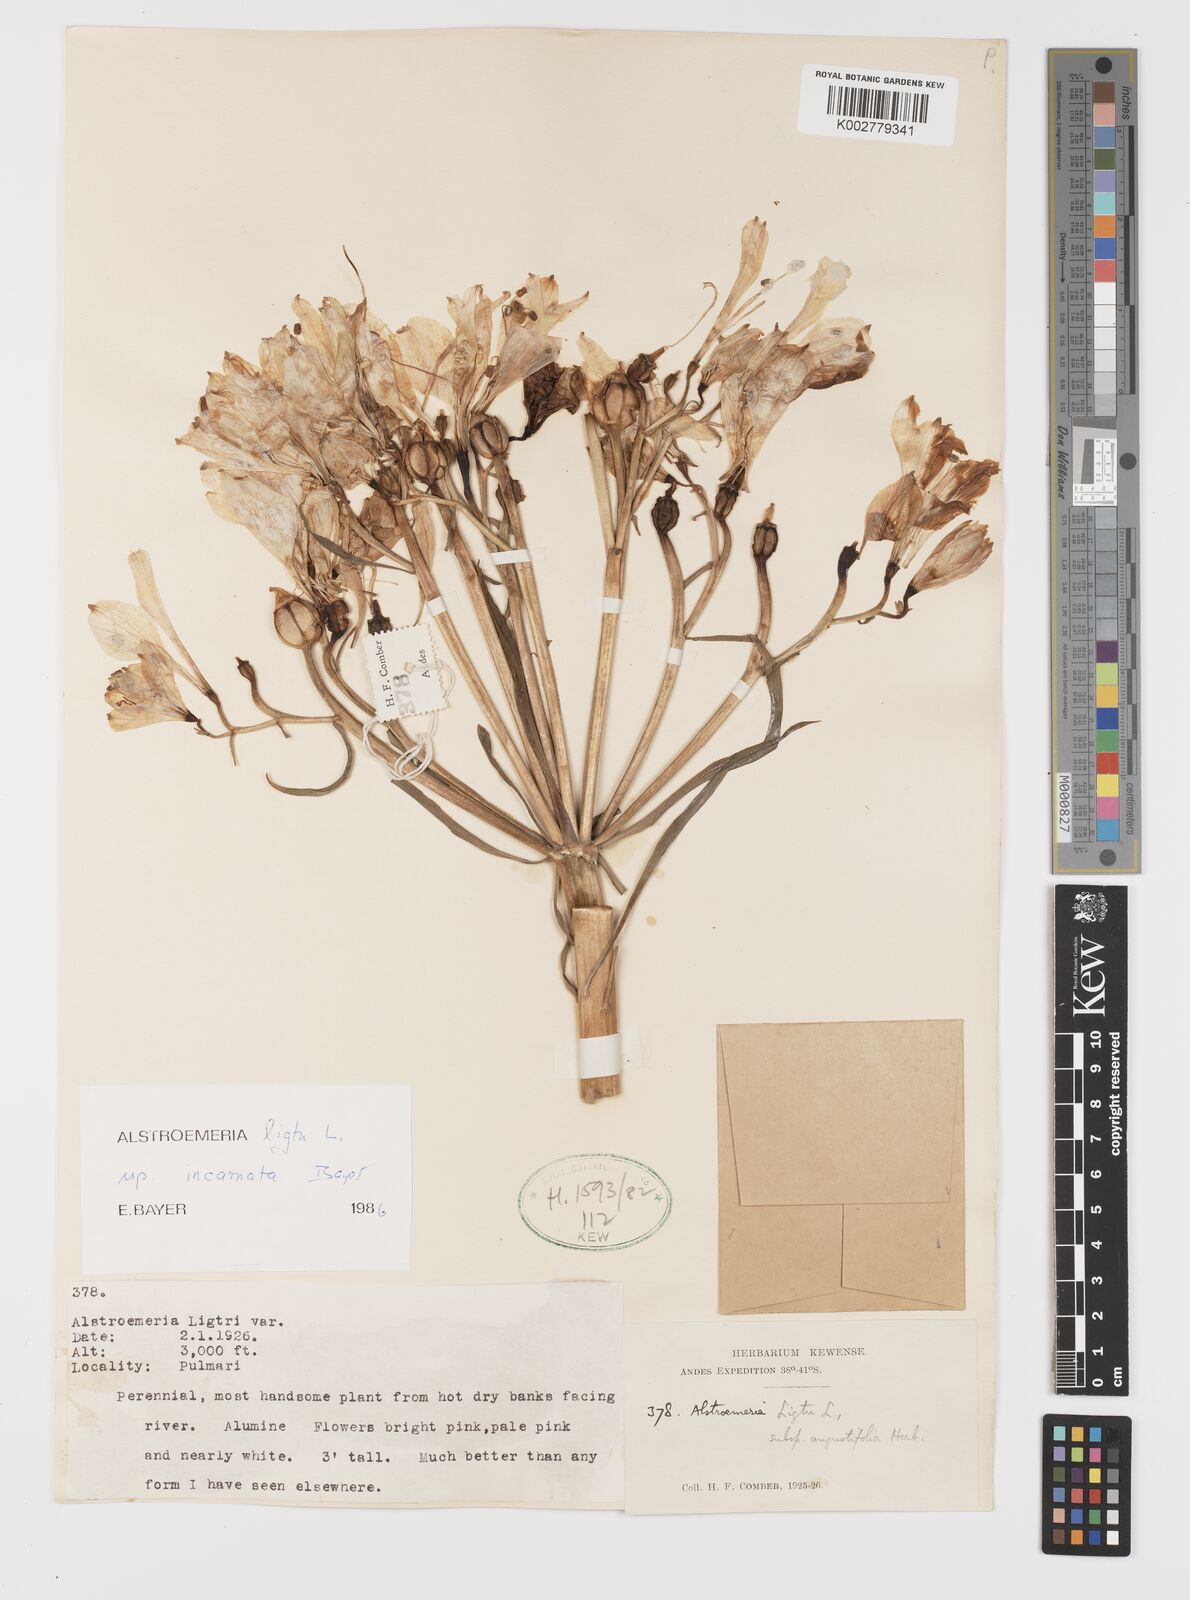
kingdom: Plantae
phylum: Tracheophyta
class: Liliopsida
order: Liliales
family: Alstroemeriaceae
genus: Alstroemeria
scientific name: Alstroemeria ligtu
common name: St. martin's-flower
